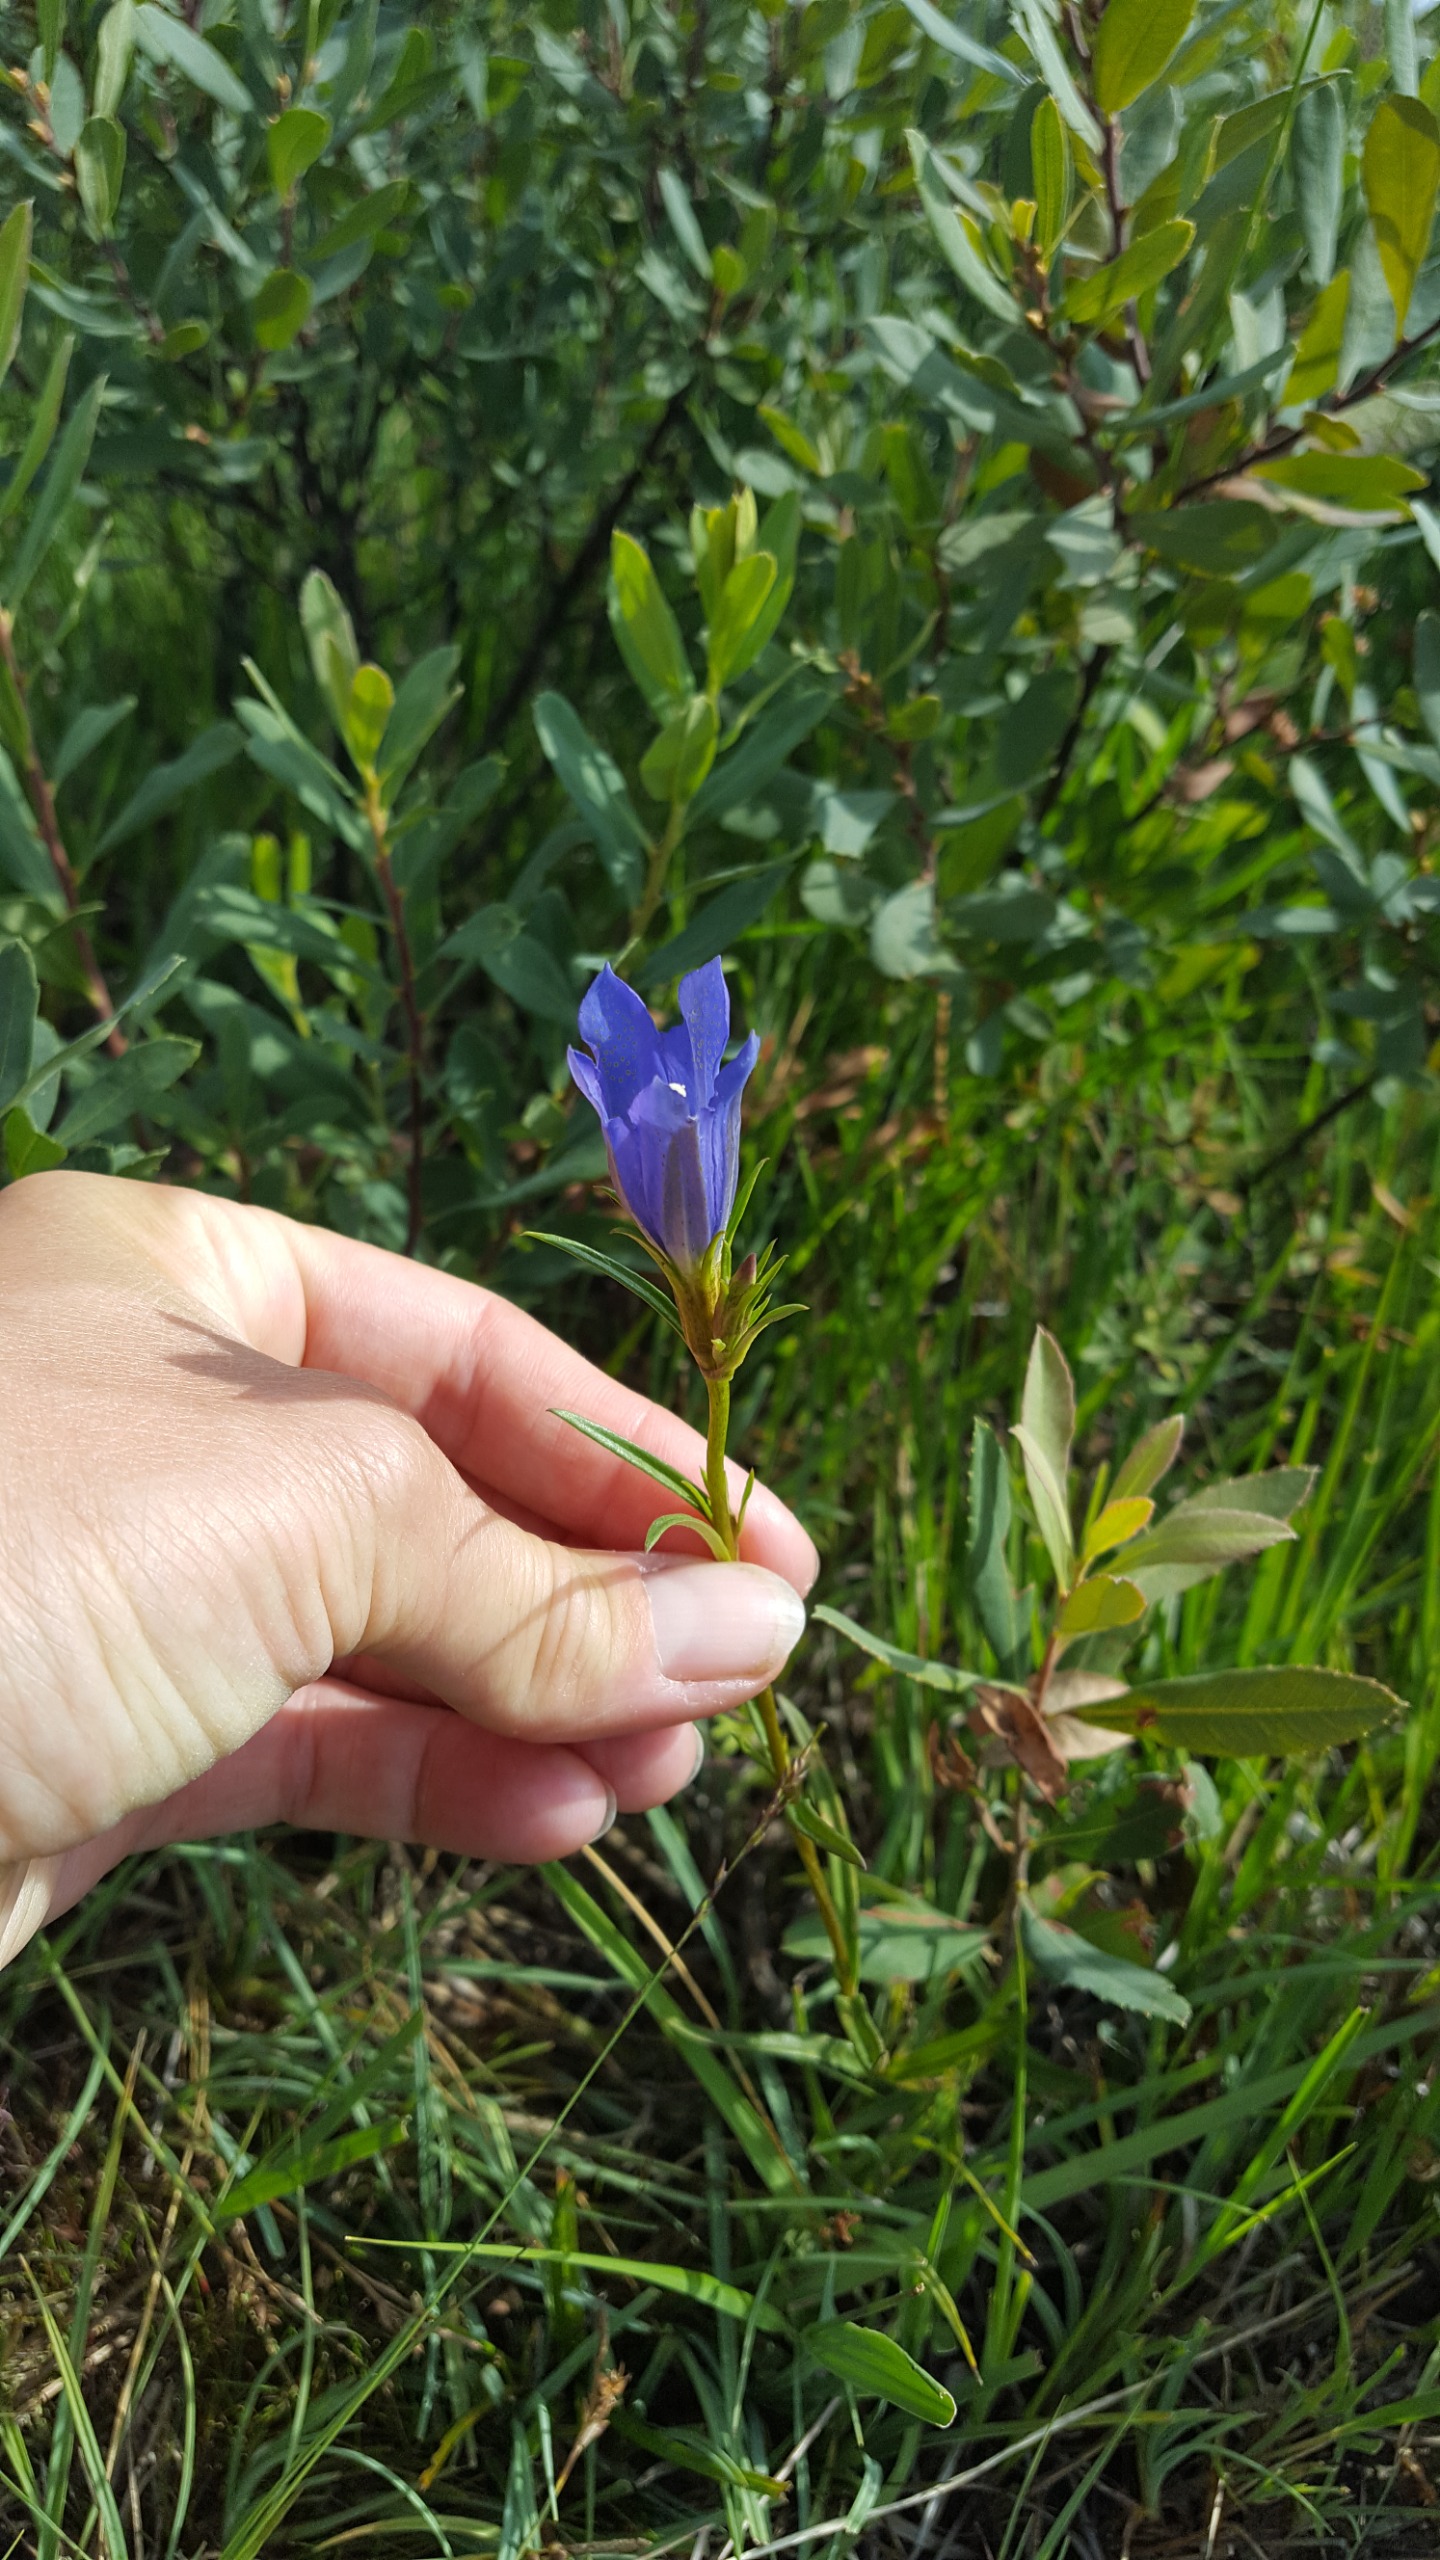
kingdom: Plantae
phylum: Tracheophyta
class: Magnoliopsida
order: Gentianales
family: Gentianaceae
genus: Gentiana
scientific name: Gentiana pneumonanthe
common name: Klokke-ensian
